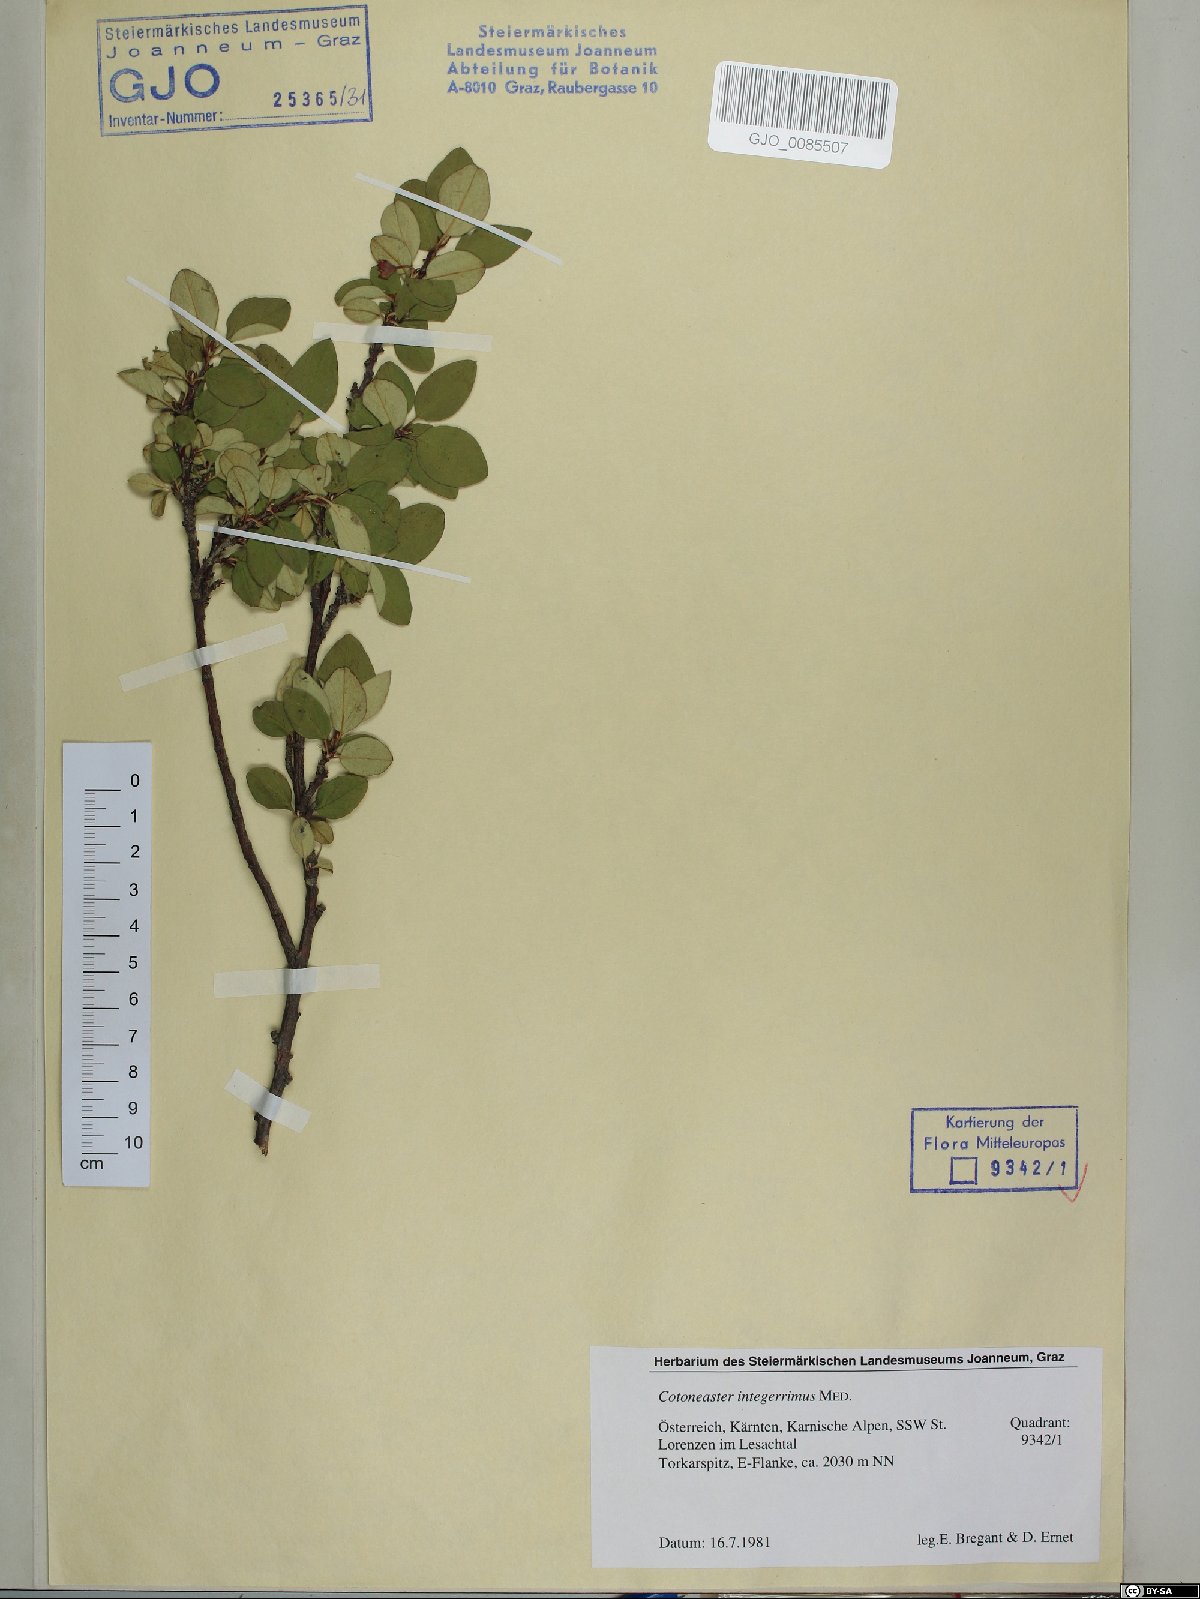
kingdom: Plantae
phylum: Tracheophyta
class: Magnoliopsida
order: Rosales
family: Rosaceae
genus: Cotoneaster
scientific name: Cotoneaster integerrimus
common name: Wild cotoneaster
